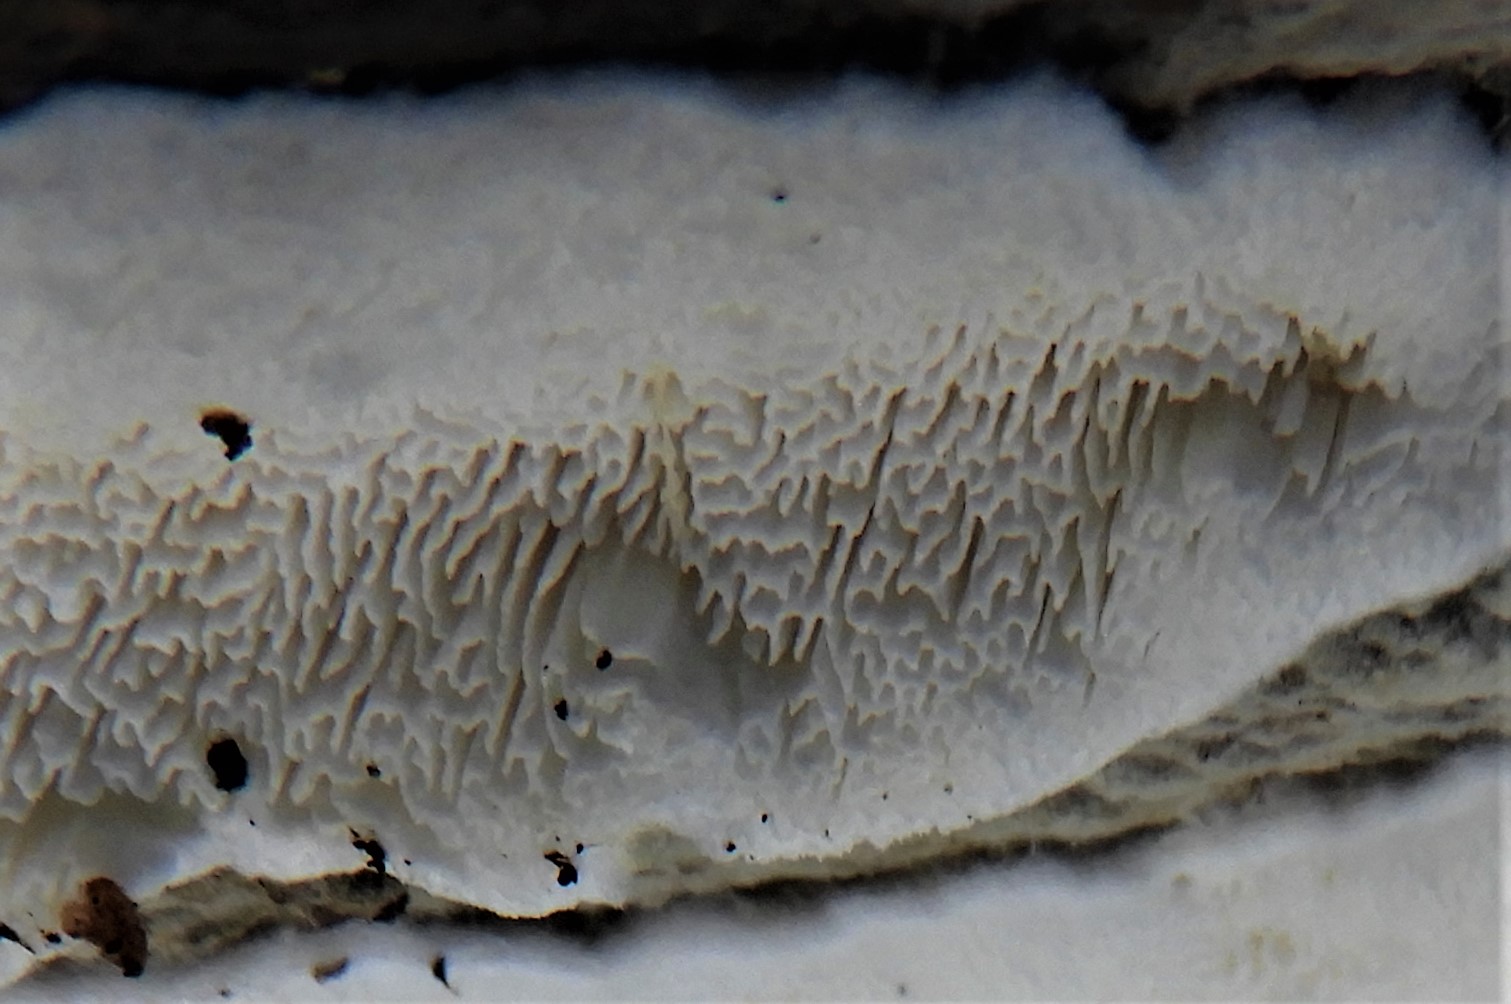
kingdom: Fungi
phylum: Basidiomycota
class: Agaricomycetes
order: Polyporales
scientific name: Polyporales
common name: poresvampordenen
